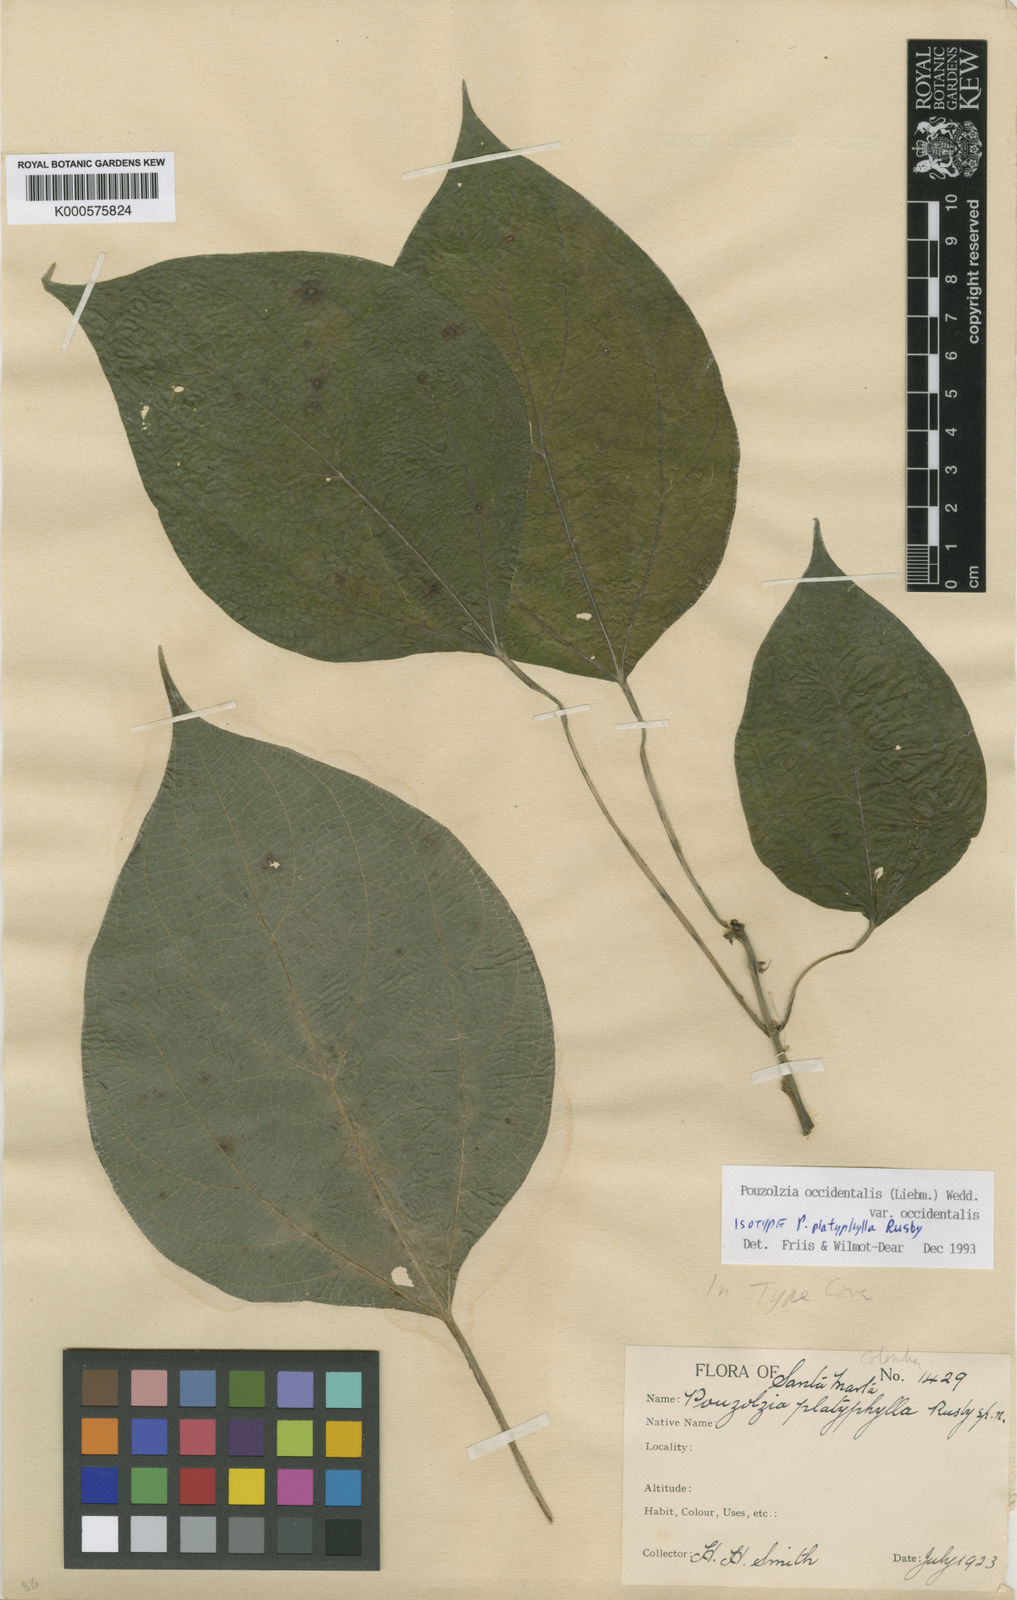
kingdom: Plantae
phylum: Tracheophyta
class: Magnoliopsida
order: Rosales
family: Urticaceae
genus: Pouzolzia
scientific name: Pouzolzia occidentalis
